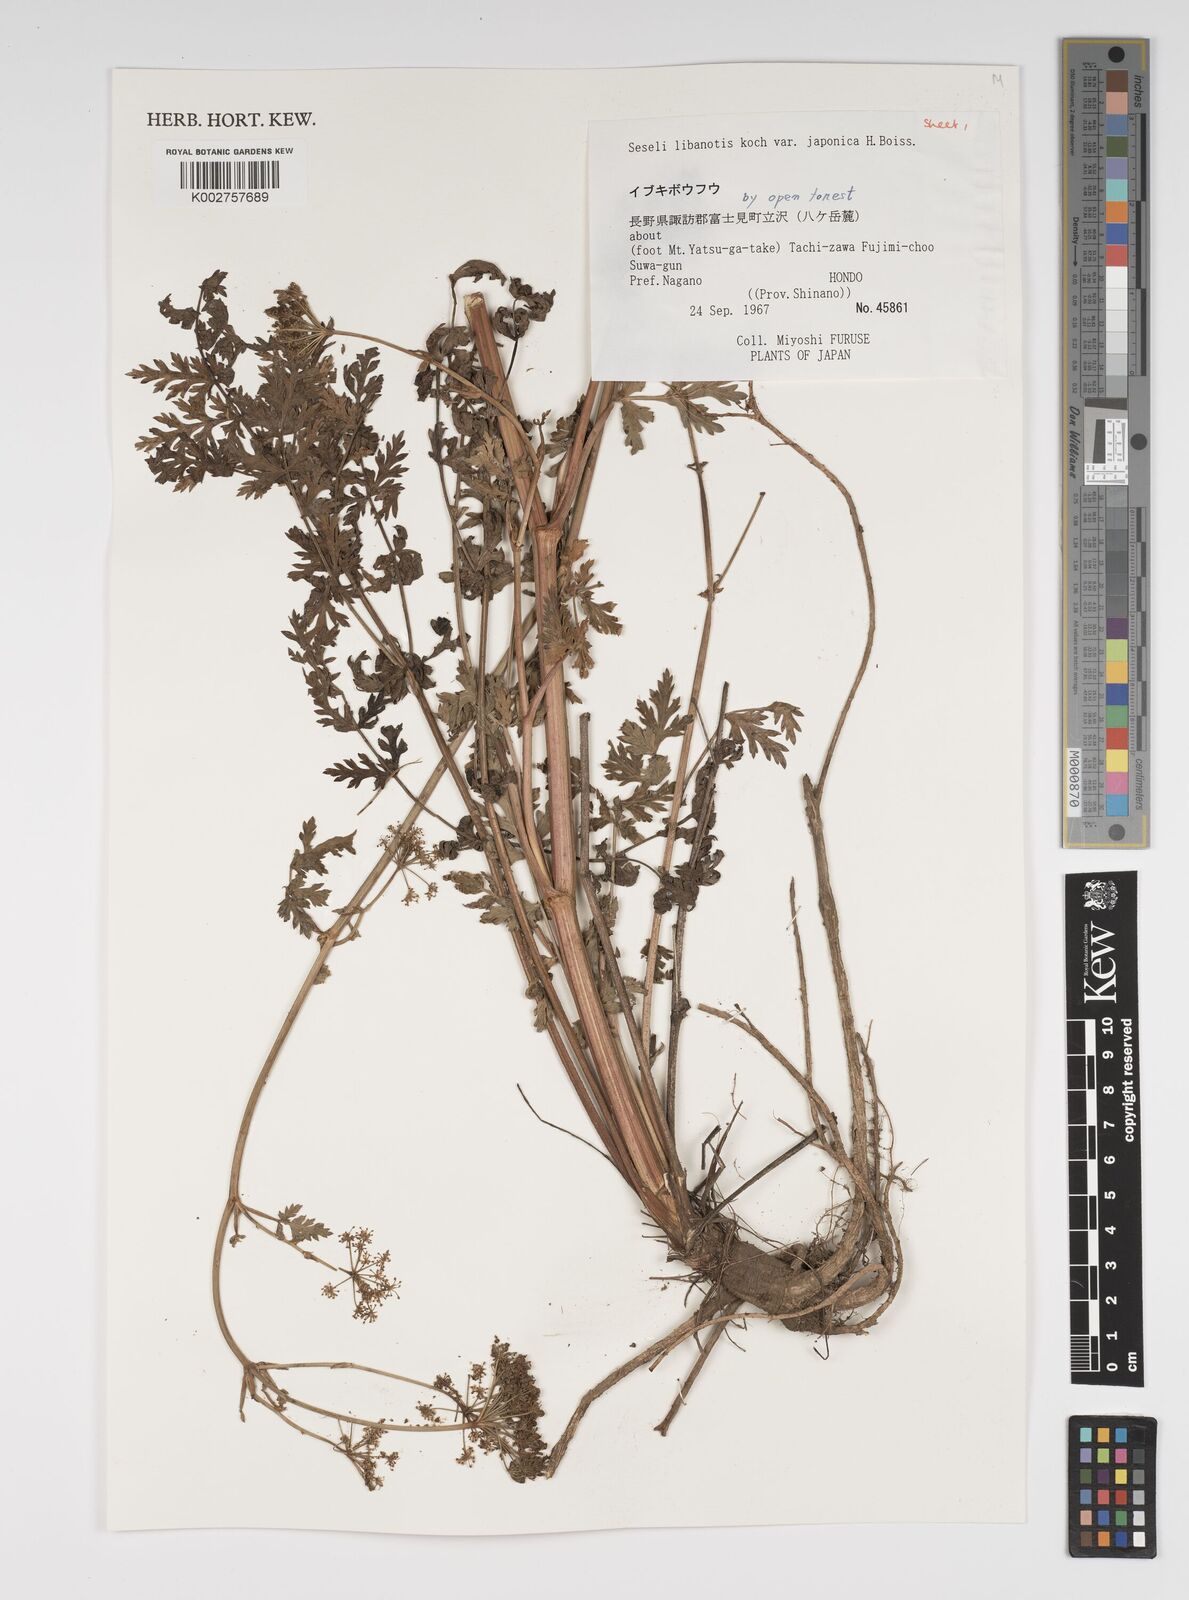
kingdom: Plantae
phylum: Tracheophyta
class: Magnoliopsida
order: Apiales
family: Apiaceae
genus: Seseli
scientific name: Seseli libanotis
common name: Mooncarrot
